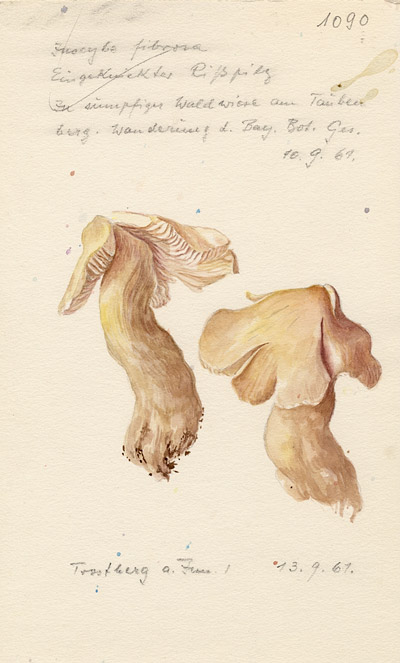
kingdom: Fungi
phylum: Basidiomycota
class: Agaricomycetes
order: Agaricales
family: Inocybaceae
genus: Inocybe
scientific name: Inocybe fibrosa
